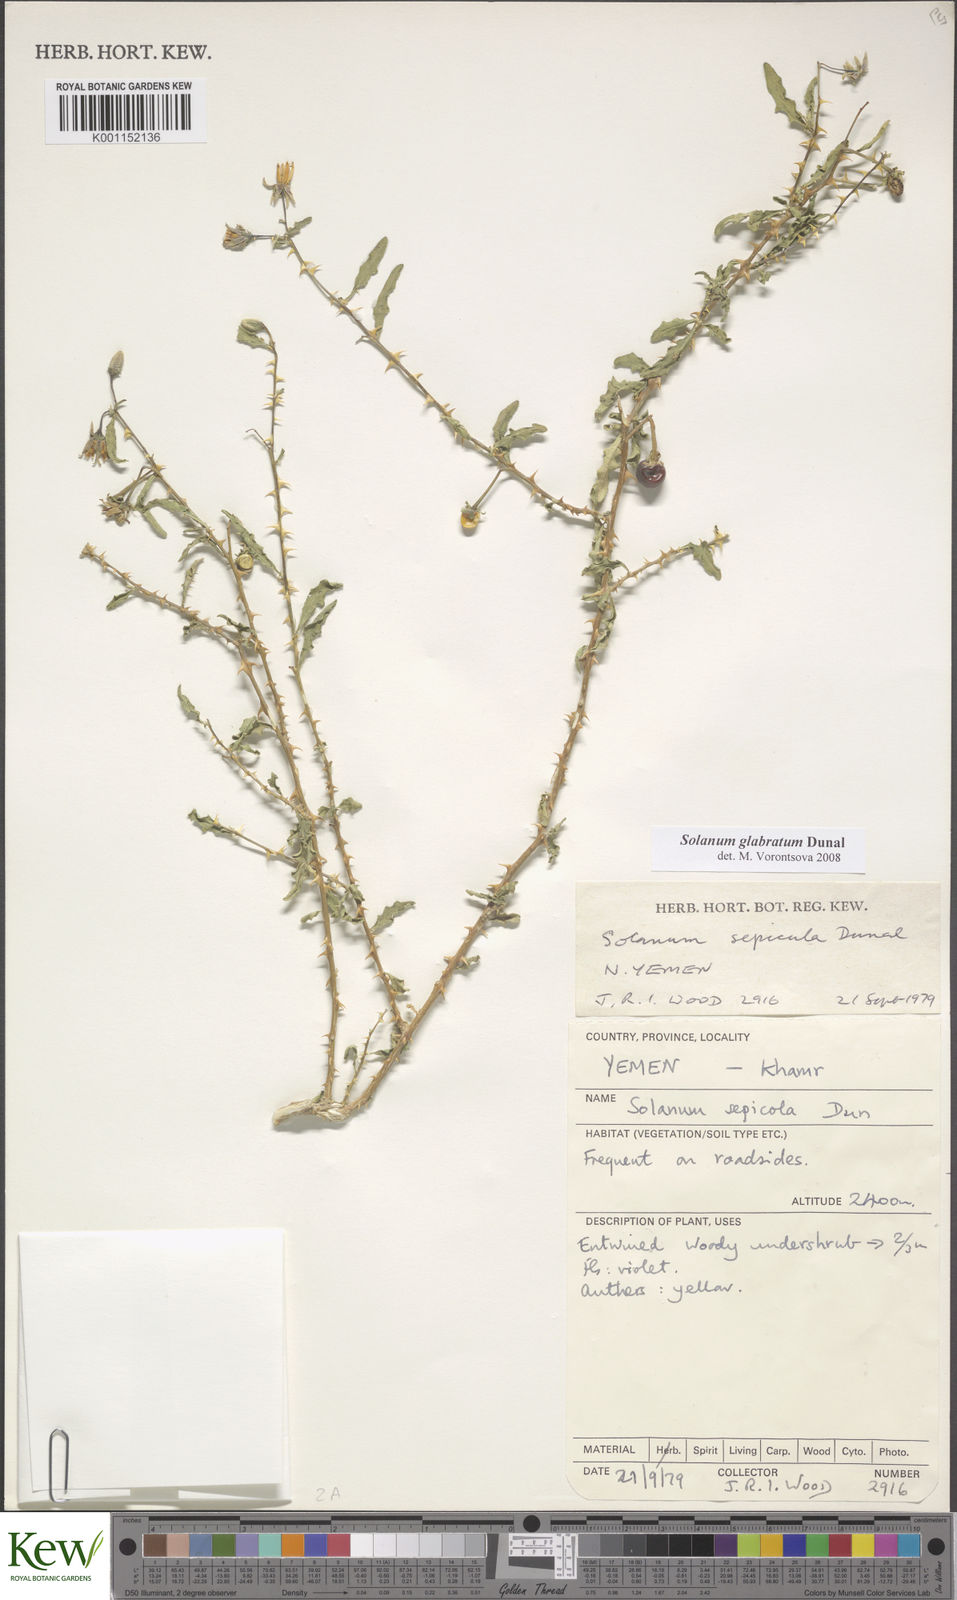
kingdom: Plantae
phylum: Tracheophyta
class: Magnoliopsida
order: Solanales
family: Solanaceae
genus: Solanum
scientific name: Solanum glabratum
